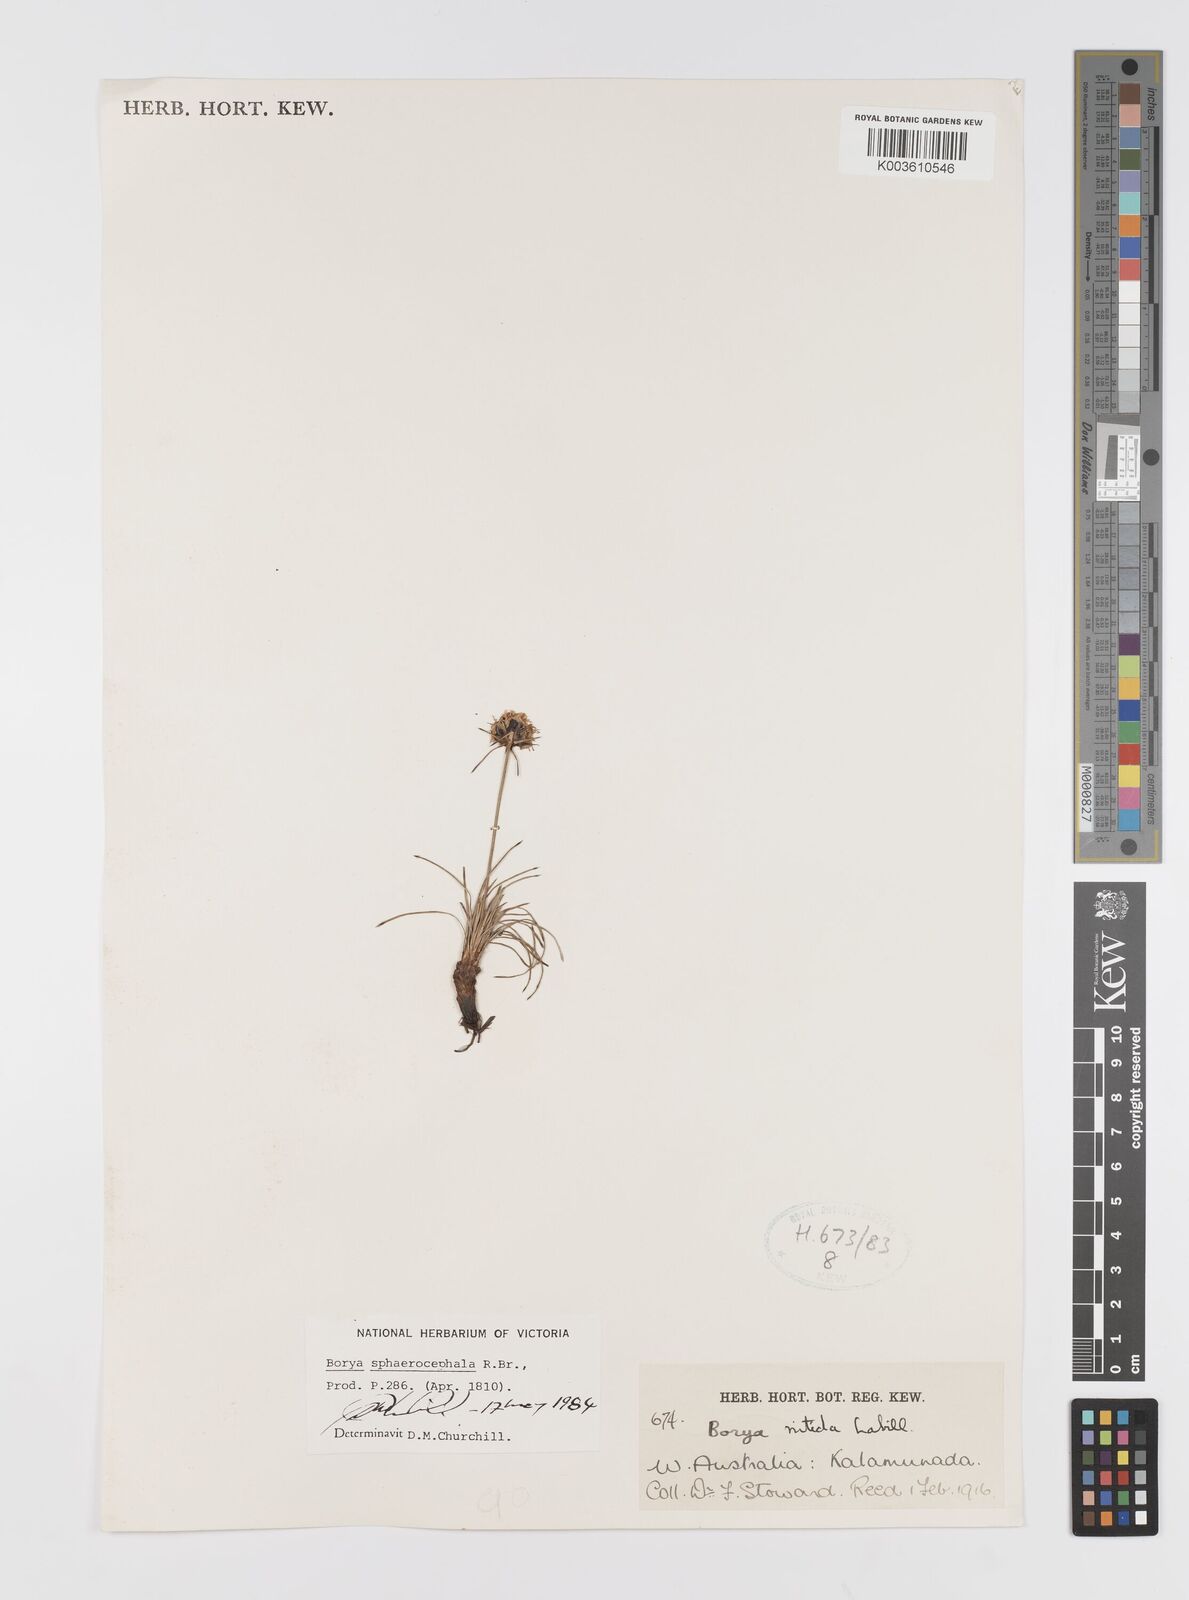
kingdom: Plantae
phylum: Tracheophyta
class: Liliopsida
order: Asparagales
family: Boryaceae
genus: Borya
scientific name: Borya sphaerocephala
